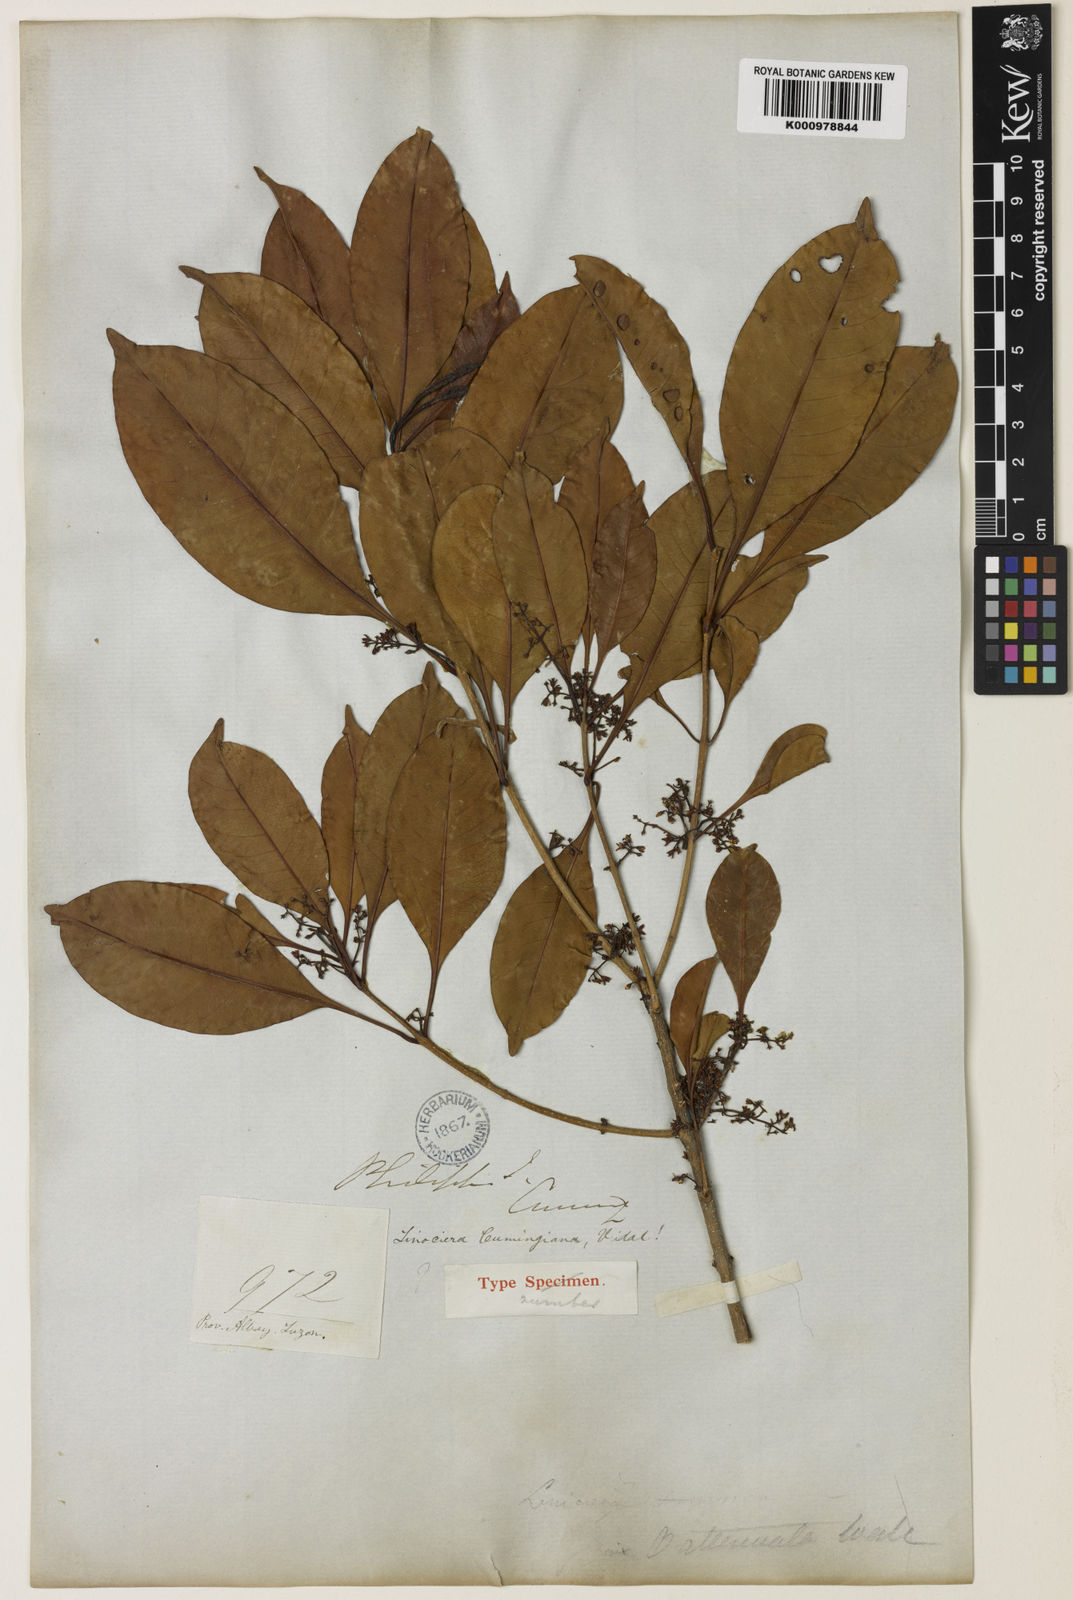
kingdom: Plantae
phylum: Tracheophyta
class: Magnoliopsida
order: Lamiales
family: Oleaceae
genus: Chionanthus
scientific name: Chionanthus ramiflorus
